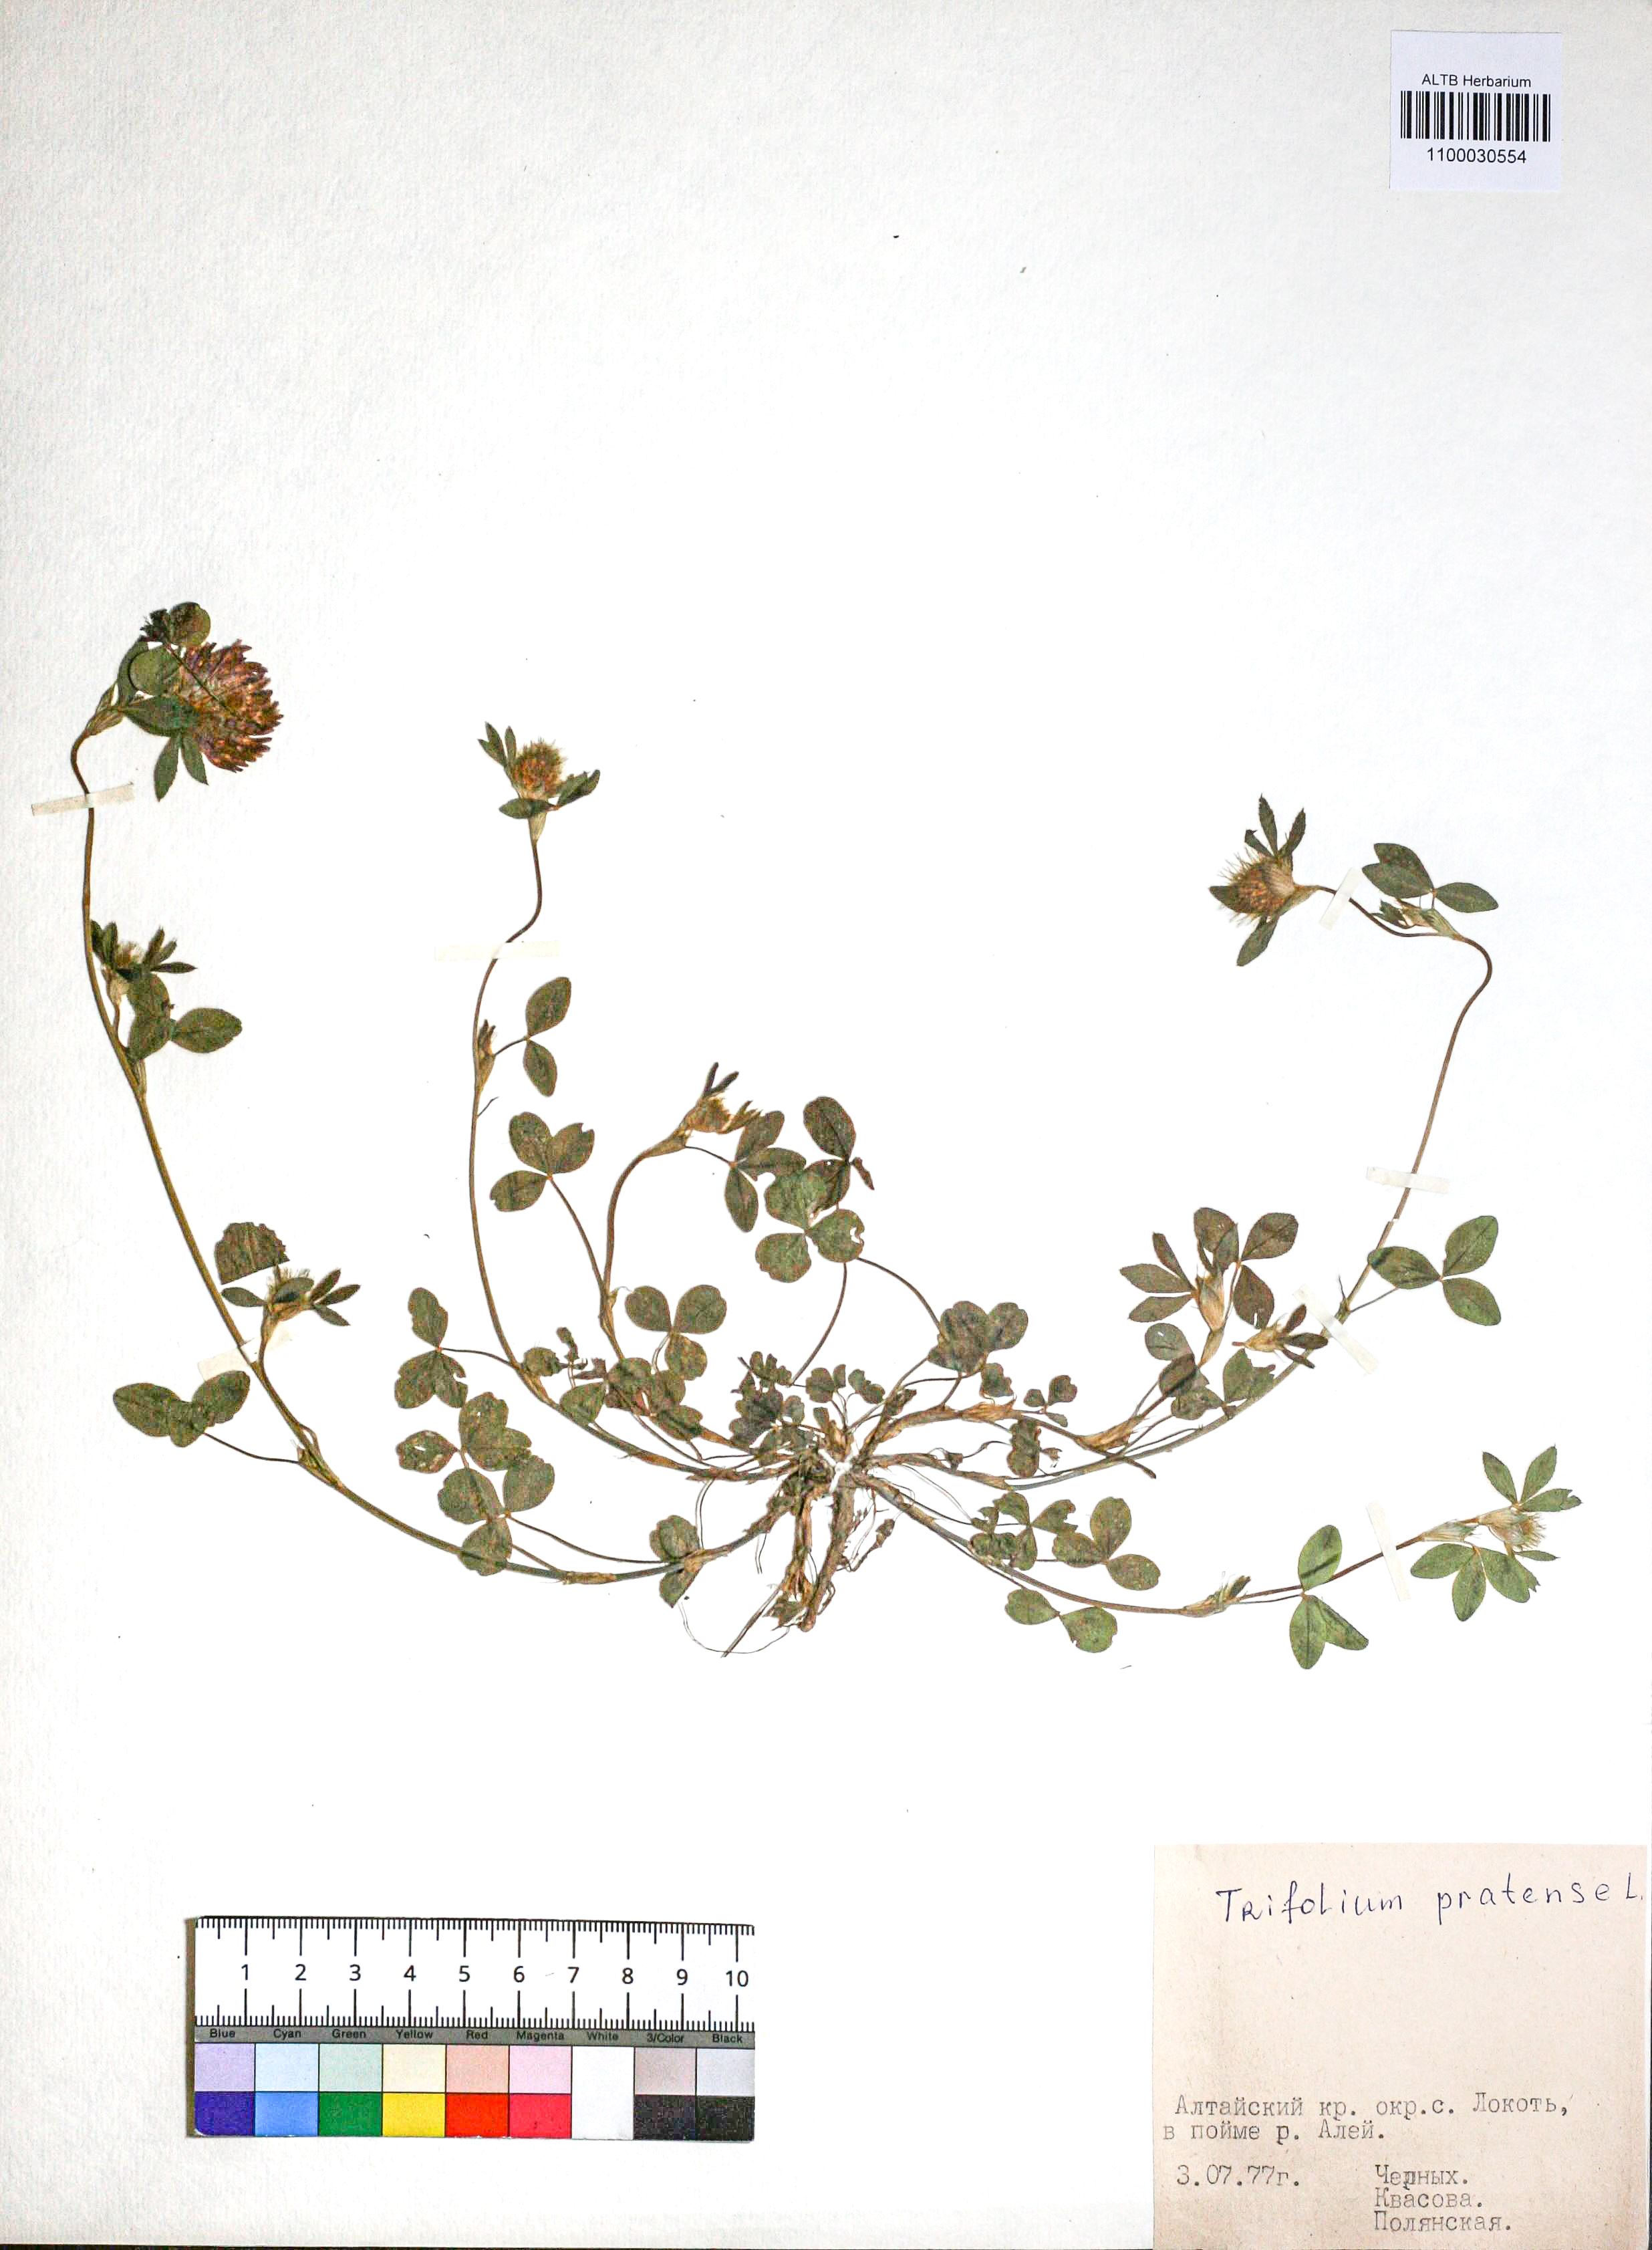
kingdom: Plantae
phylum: Tracheophyta
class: Magnoliopsida
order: Fabales
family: Fabaceae
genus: Trifolium
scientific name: Trifolium pratense
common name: Red clover
